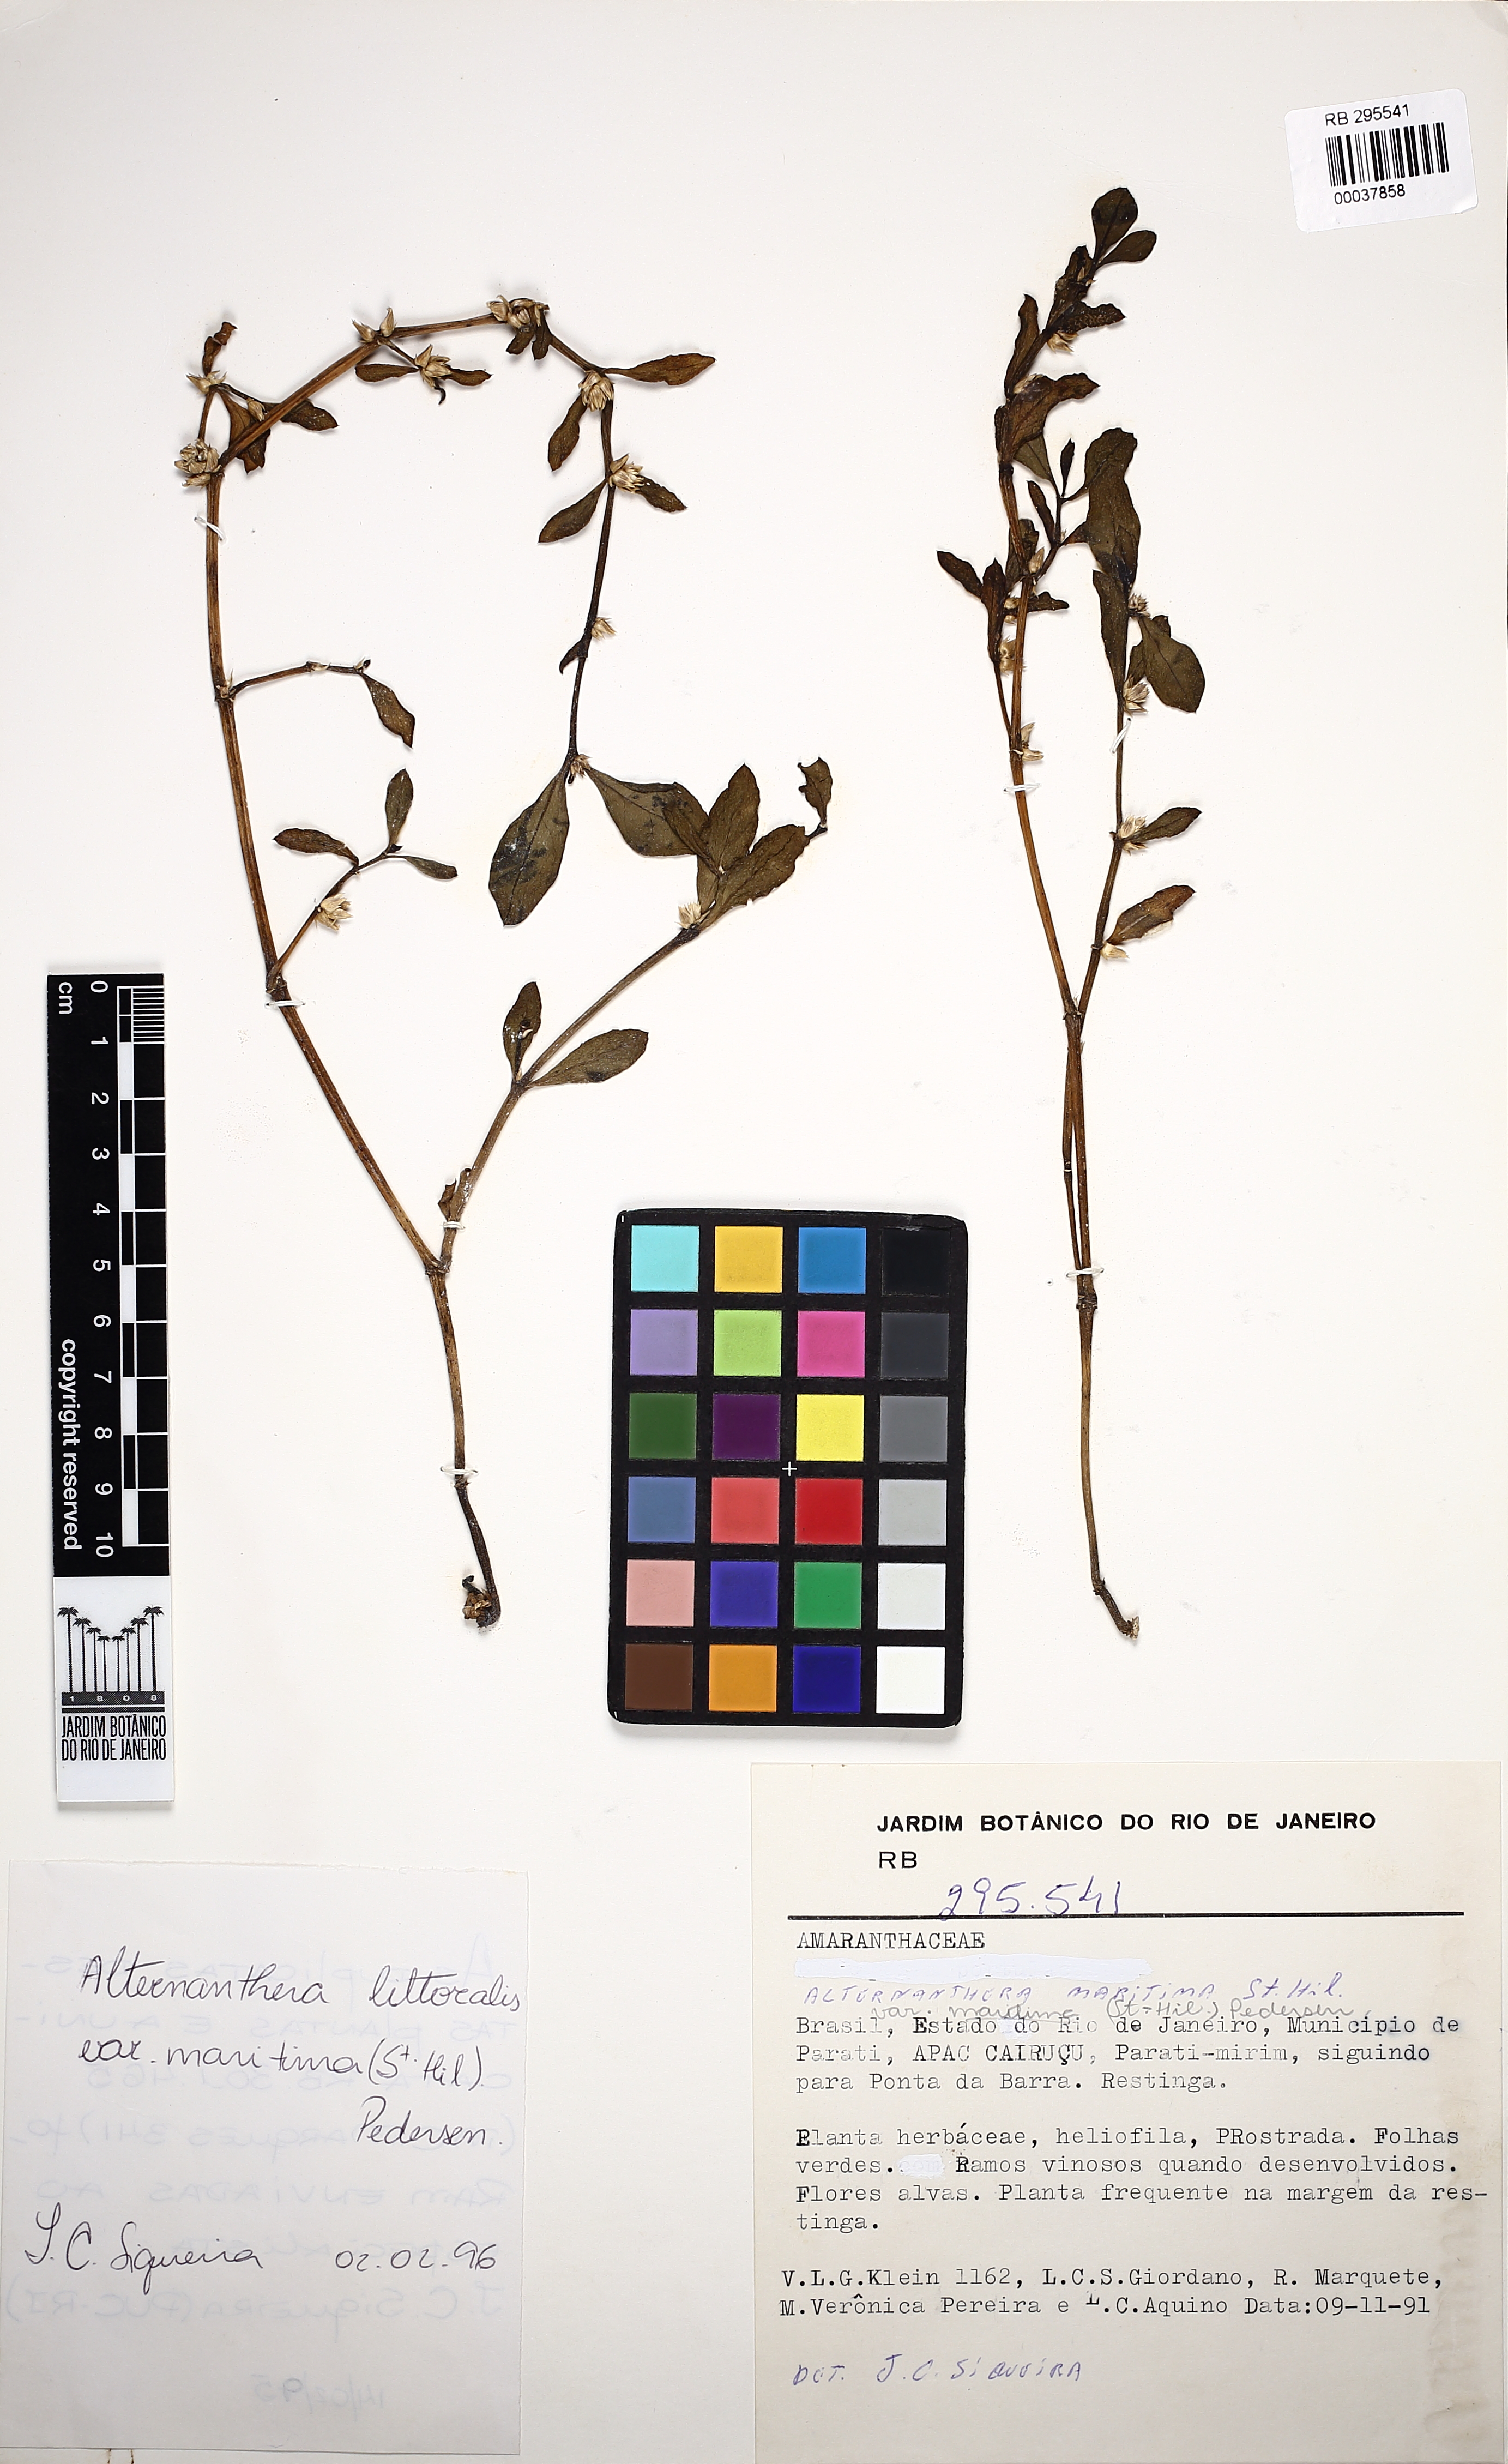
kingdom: Plantae
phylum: Tracheophyta
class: Magnoliopsida
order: Caryophyllales
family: Amaranthaceae
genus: Alternanthera
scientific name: Alternanthera littoralis
